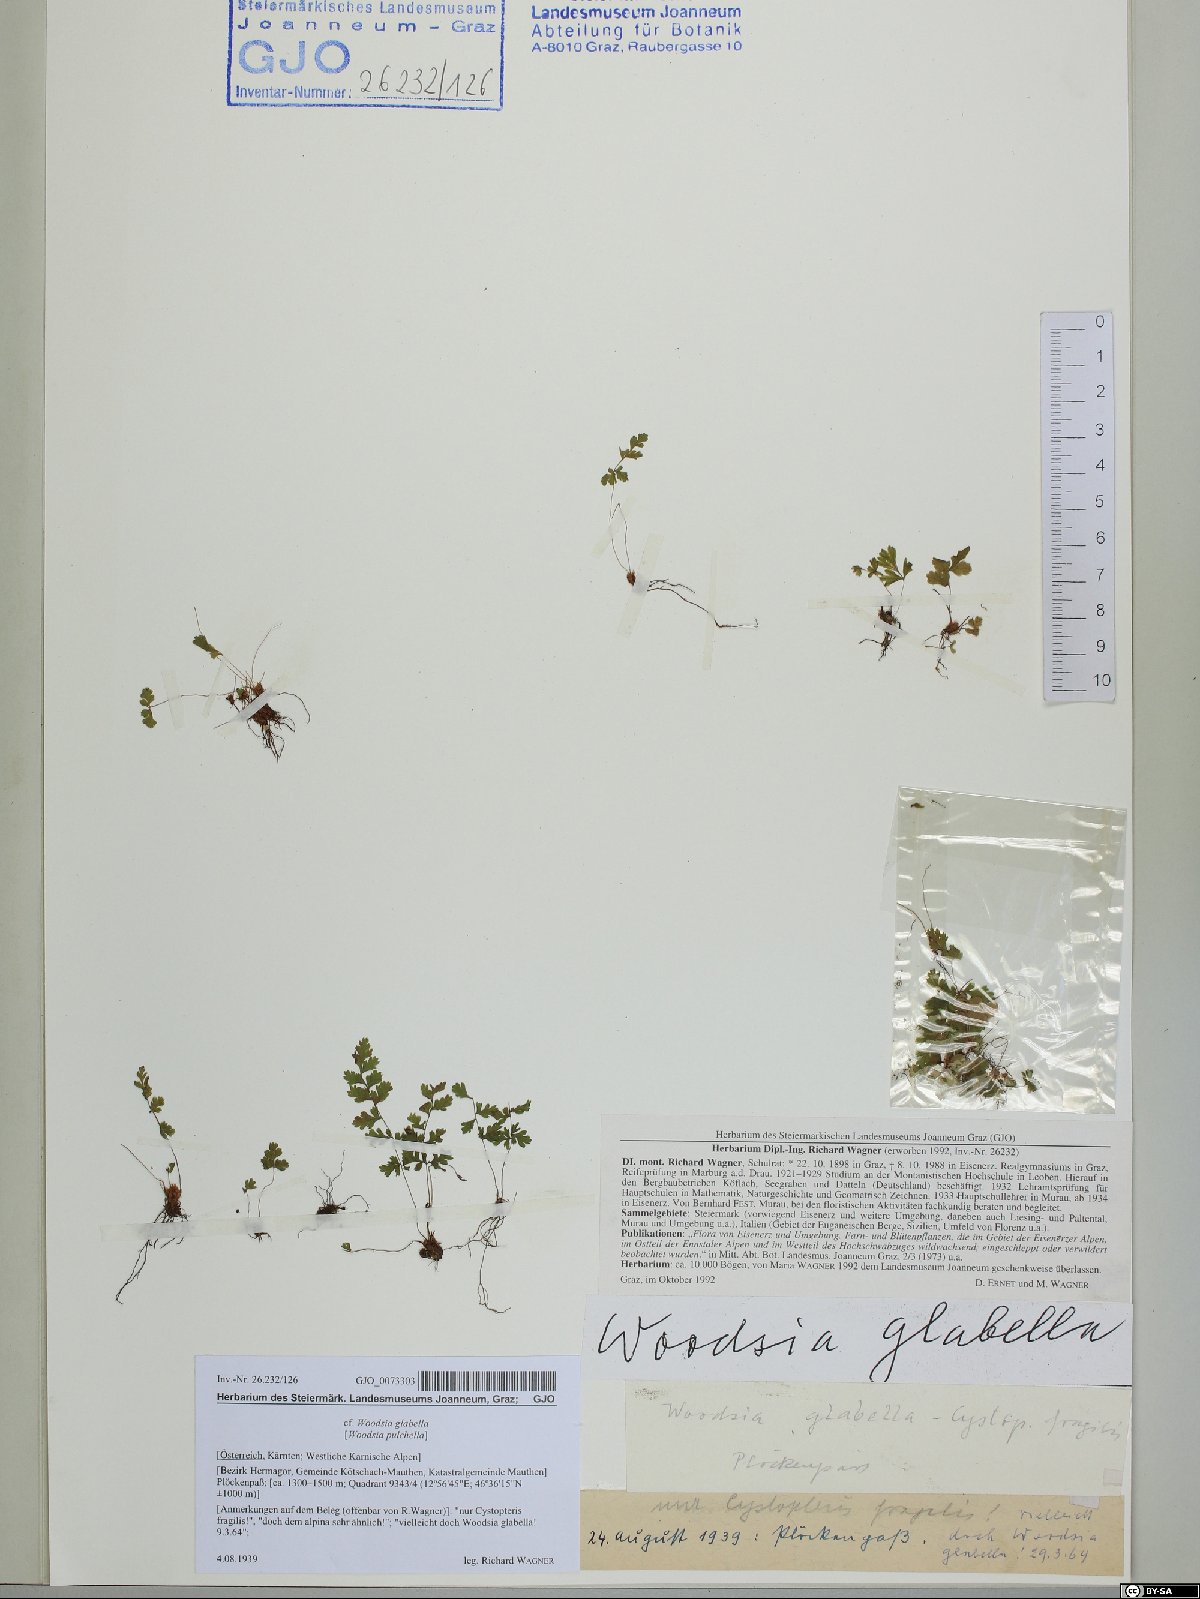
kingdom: Plantae
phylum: Tracheophyta
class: Polypodiopsida
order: Polypodiales
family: Woodsiaceae
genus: Woodsia
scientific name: Woodsia glabella
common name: Smooth woodsia
